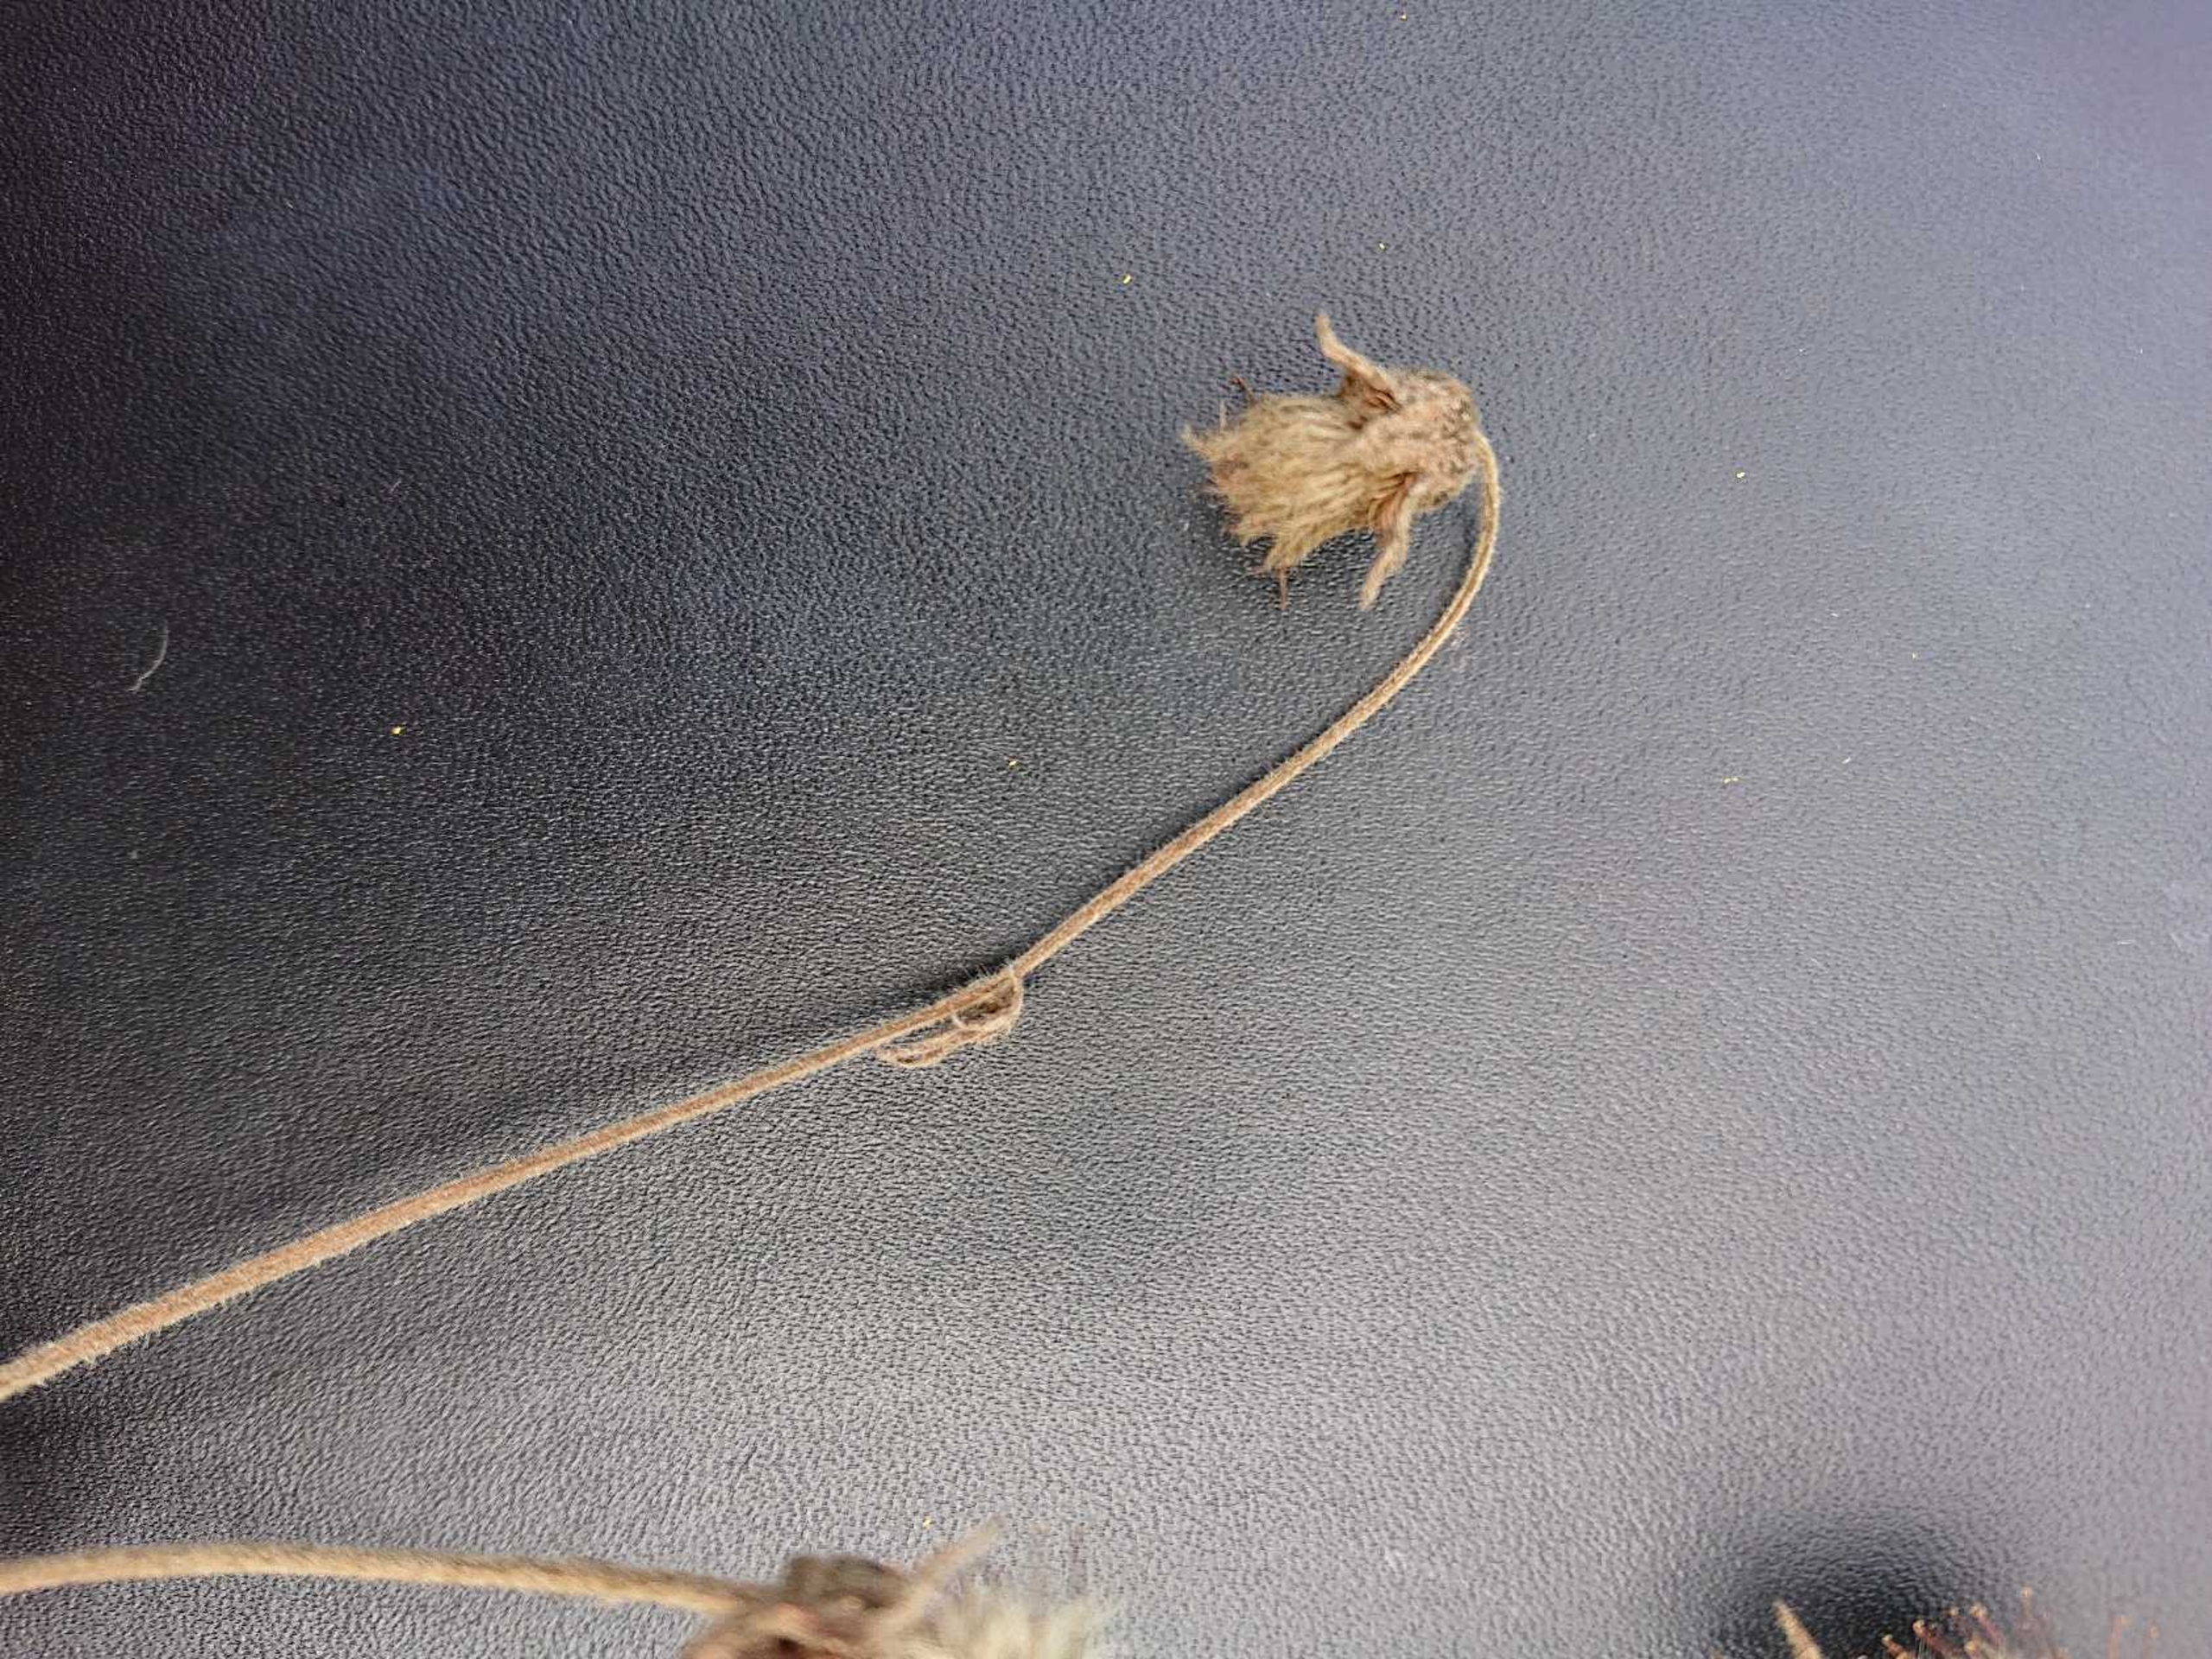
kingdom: Plantae
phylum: Tracheophyta
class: Magnoliopsida
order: Rosales
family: Rosaceae
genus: Geum
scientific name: Geum rivale
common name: Eng-nellikerod
